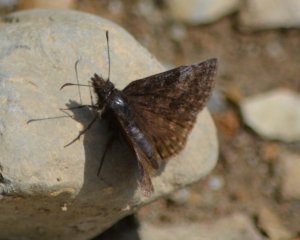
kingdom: Animalia
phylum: Arthropoda
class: Insecta
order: Lepidoptera
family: Hesperiidae
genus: Erynnis
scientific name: Erynnis icelus
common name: Dreamy Duskywing
